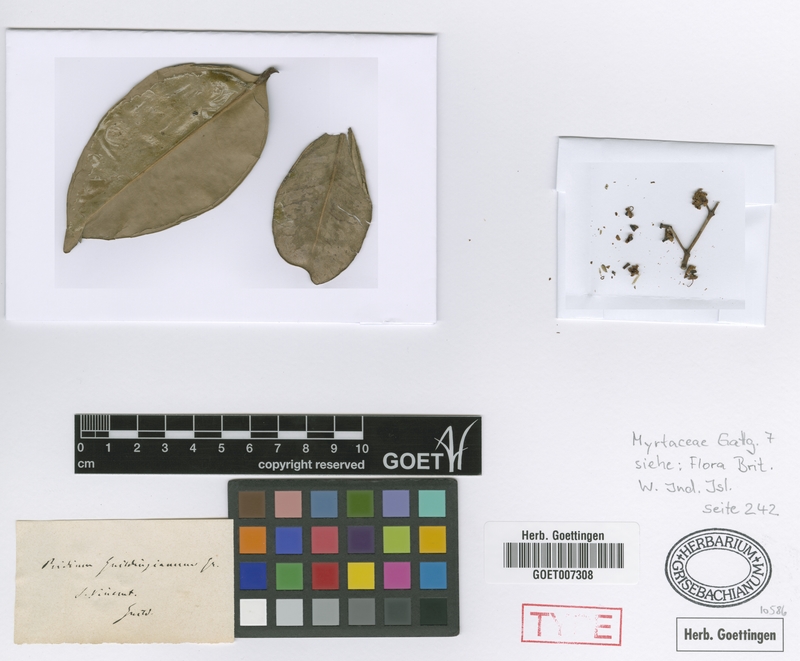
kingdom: Plantae
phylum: Tracheophyta
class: Magnoliopsida
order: Myrtales
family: Myrtaceae
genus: Myrcia
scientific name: Myrcia guildingiana
